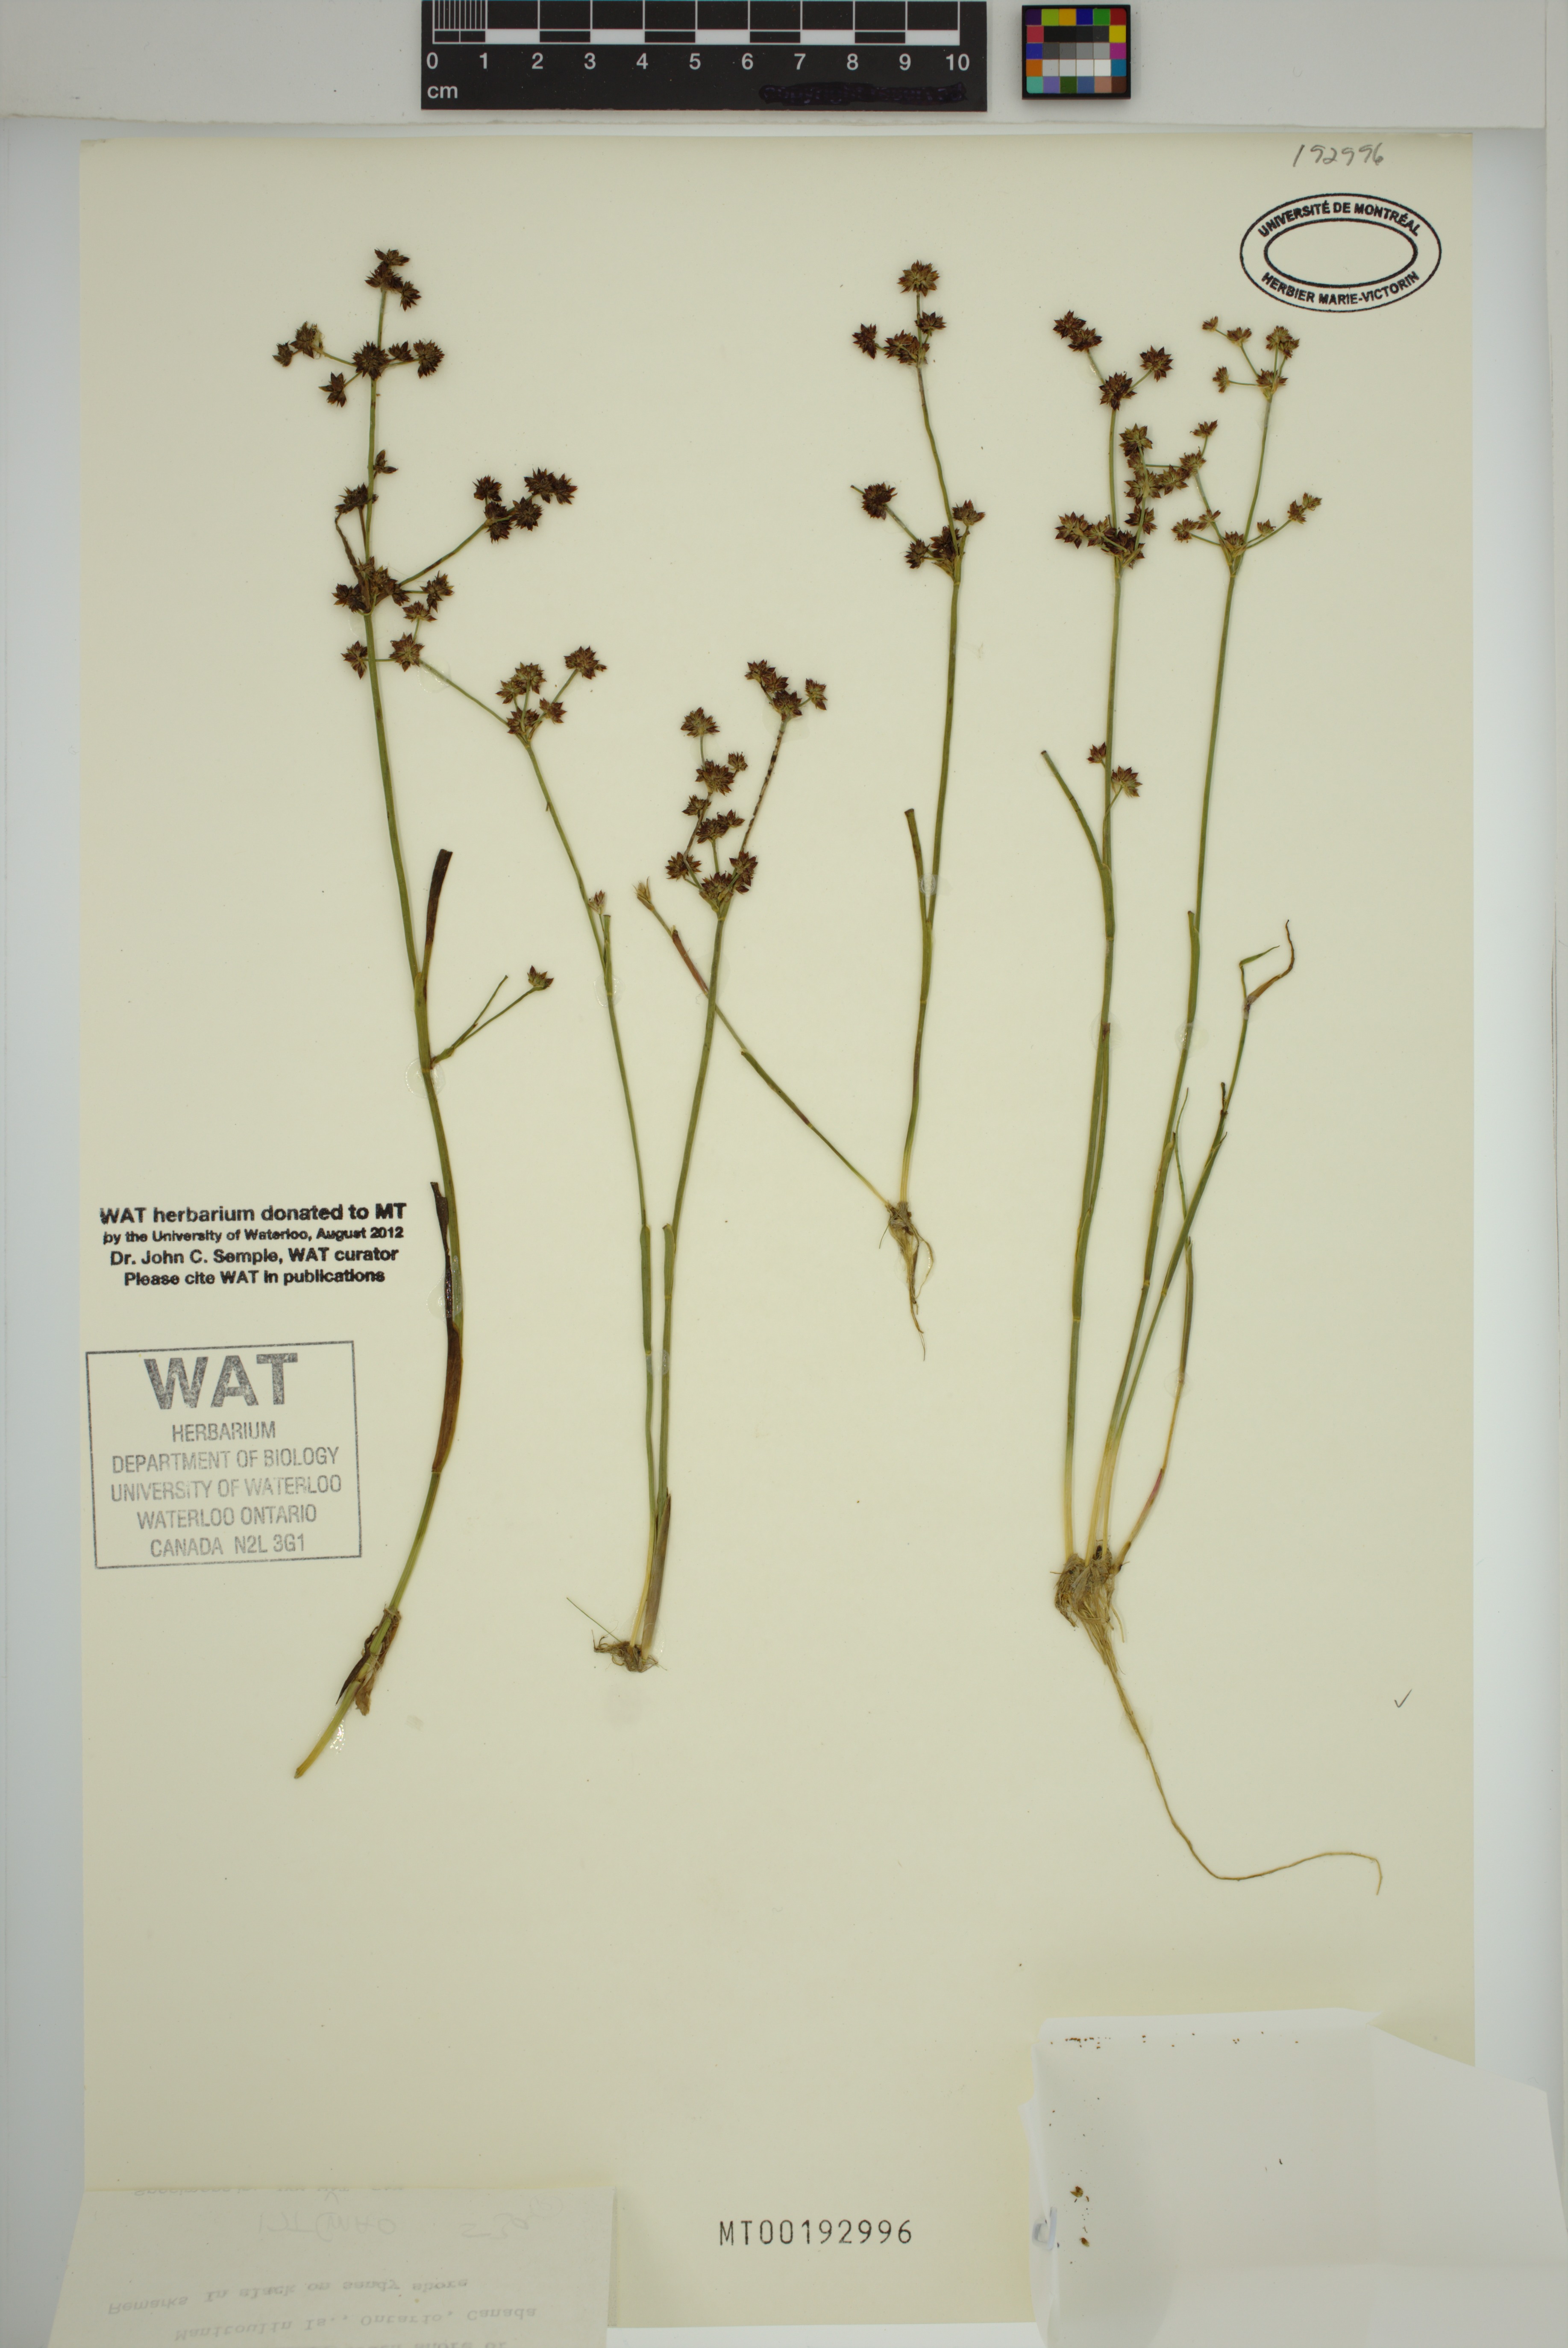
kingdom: Plantae
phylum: Tracheophyta
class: Liliopsida
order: Poales
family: Juncaceae
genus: Juncus
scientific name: Juncus articulatus
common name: Jointed rush
